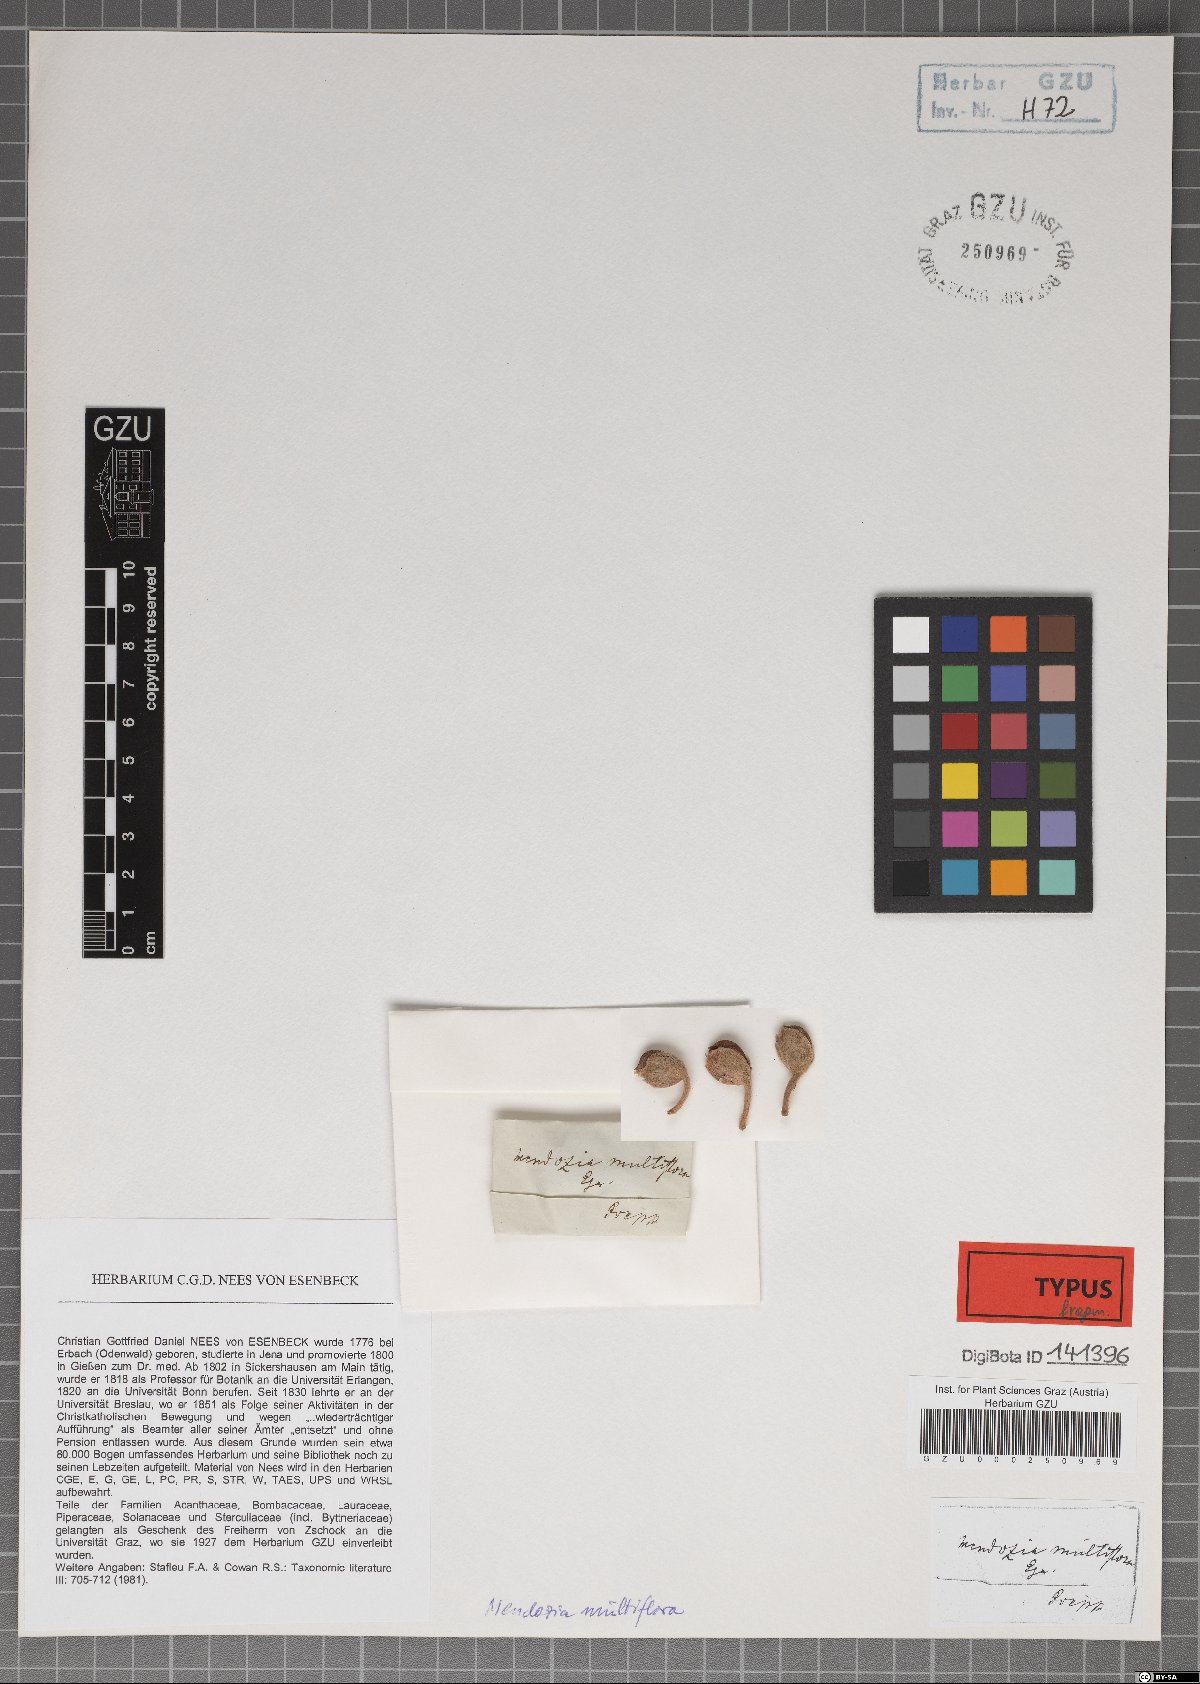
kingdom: Plantae
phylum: Tracheophyta
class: Magnoliopsida
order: Lamiales
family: Acanthaceae
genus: Mendoncia
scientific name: Mendoncia multiflora
